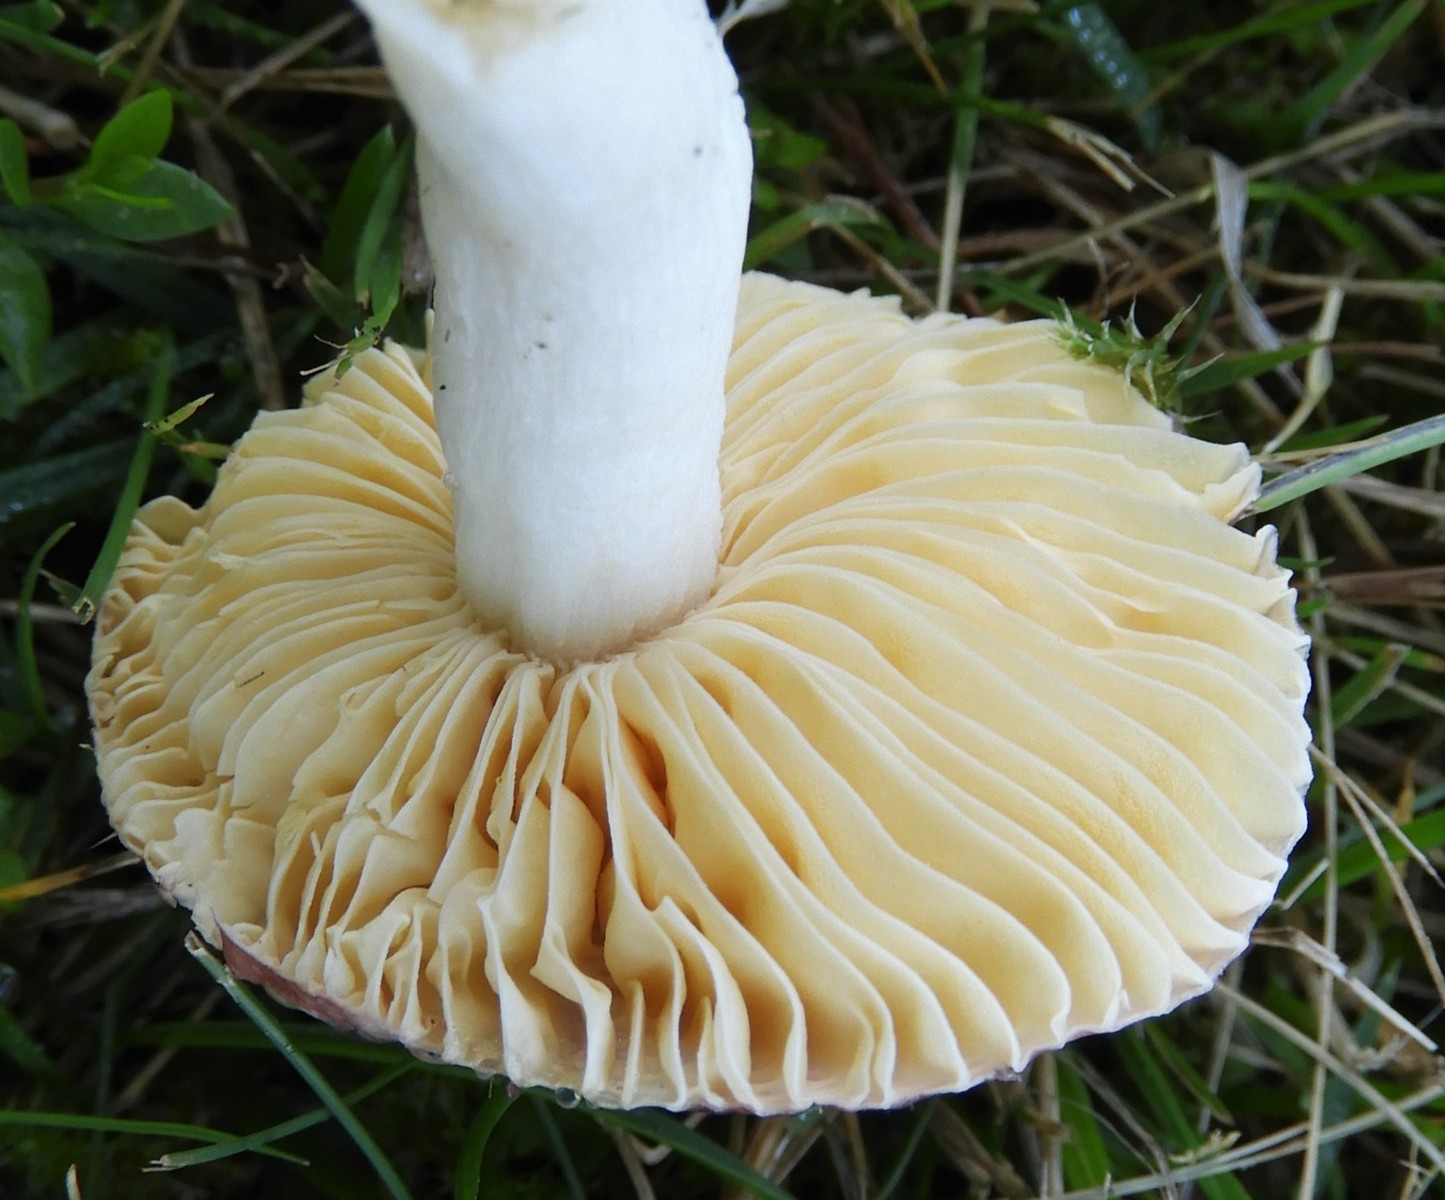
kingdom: Fungi
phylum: Basidiomycota
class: Agaricomycetes
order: Russulales
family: Russulaceae
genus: Russula
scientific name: Russula
